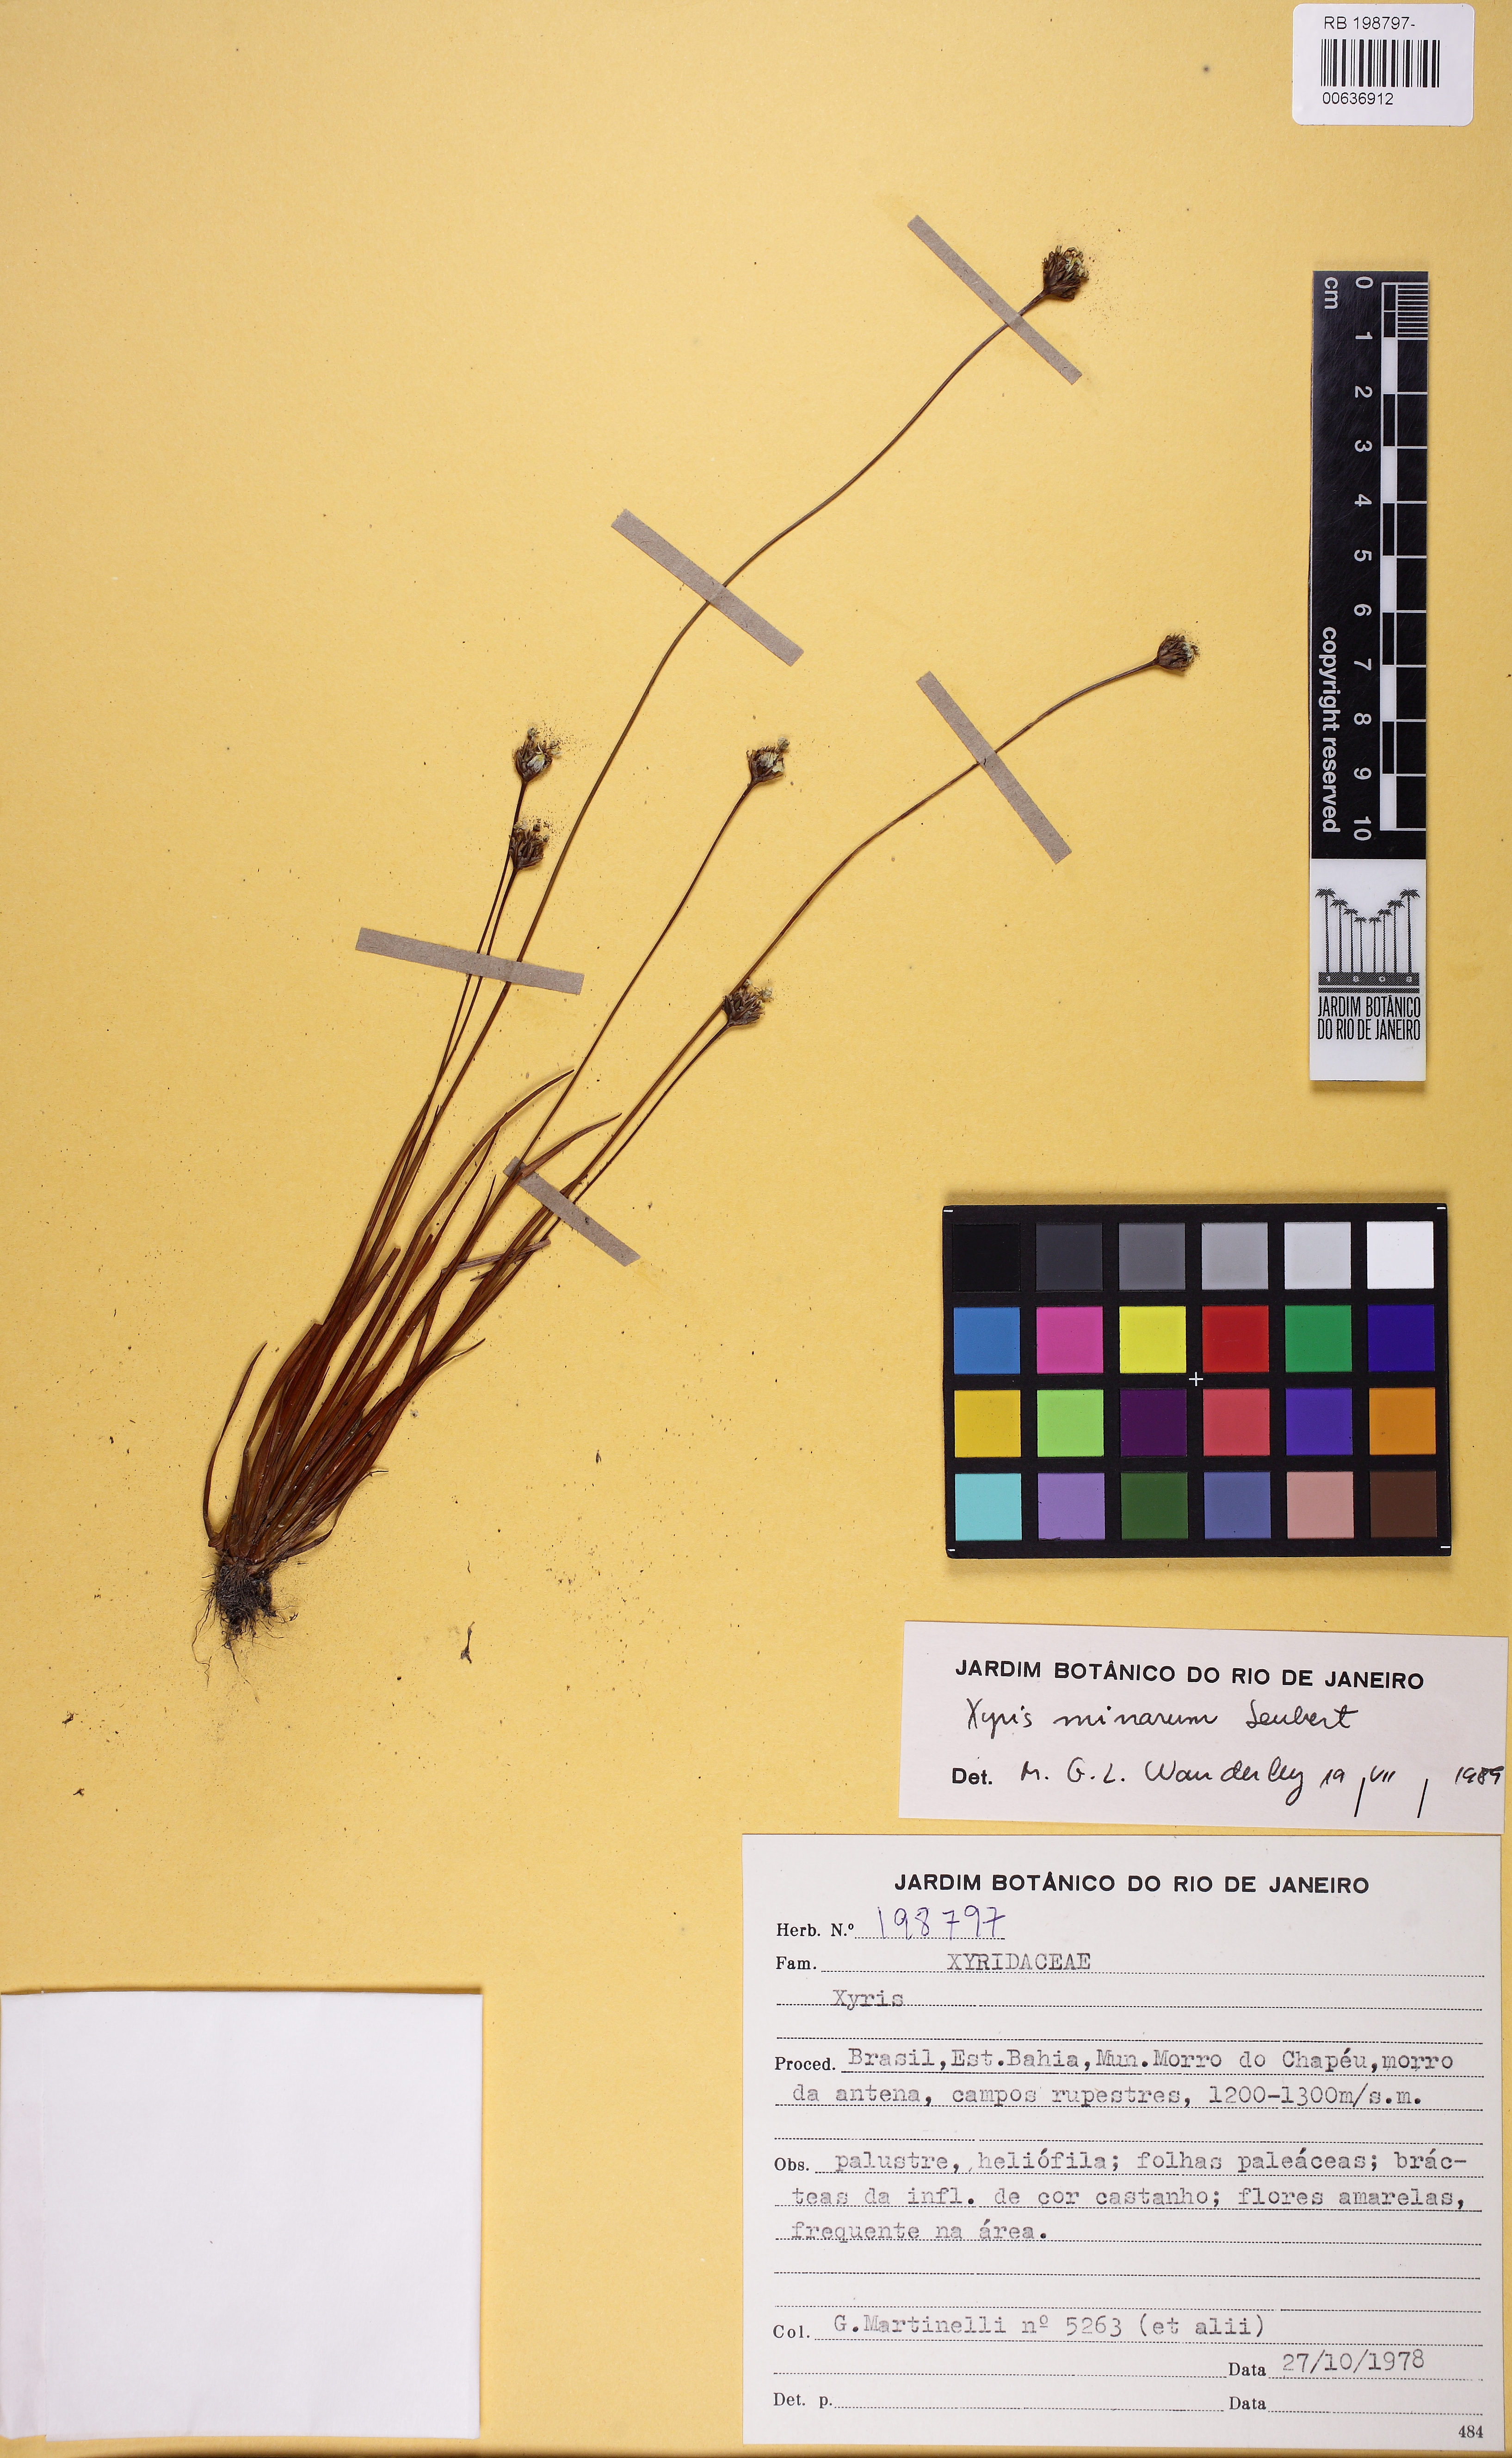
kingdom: Plantae
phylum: Tracheophyta
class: Liliopsida
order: Poales
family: Xyridaceae
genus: Xyris
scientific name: Xyris minarum
